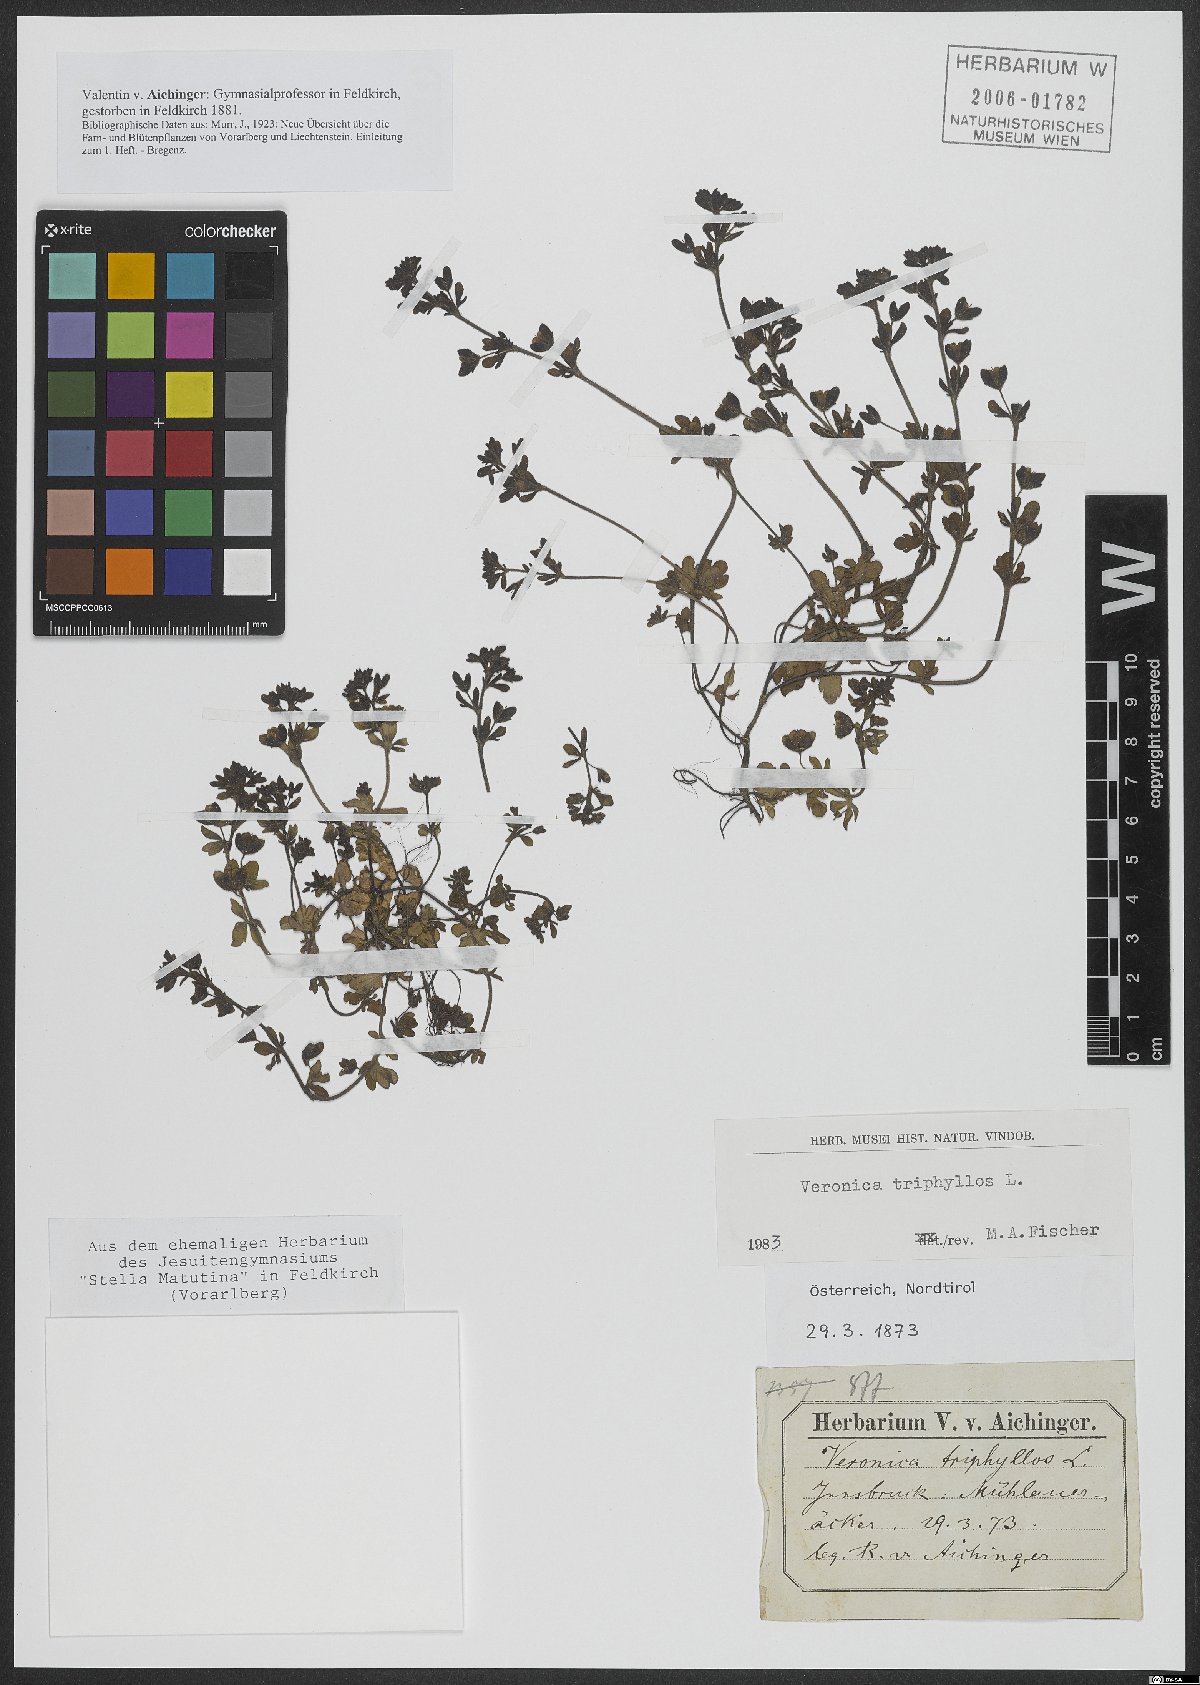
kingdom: Plantae
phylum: Tracheophyta
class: Magnoliopsida
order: Lamiales
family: Plantaginaceae
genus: Veronica
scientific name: Veronica triphyllos
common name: Fingered speedwell
